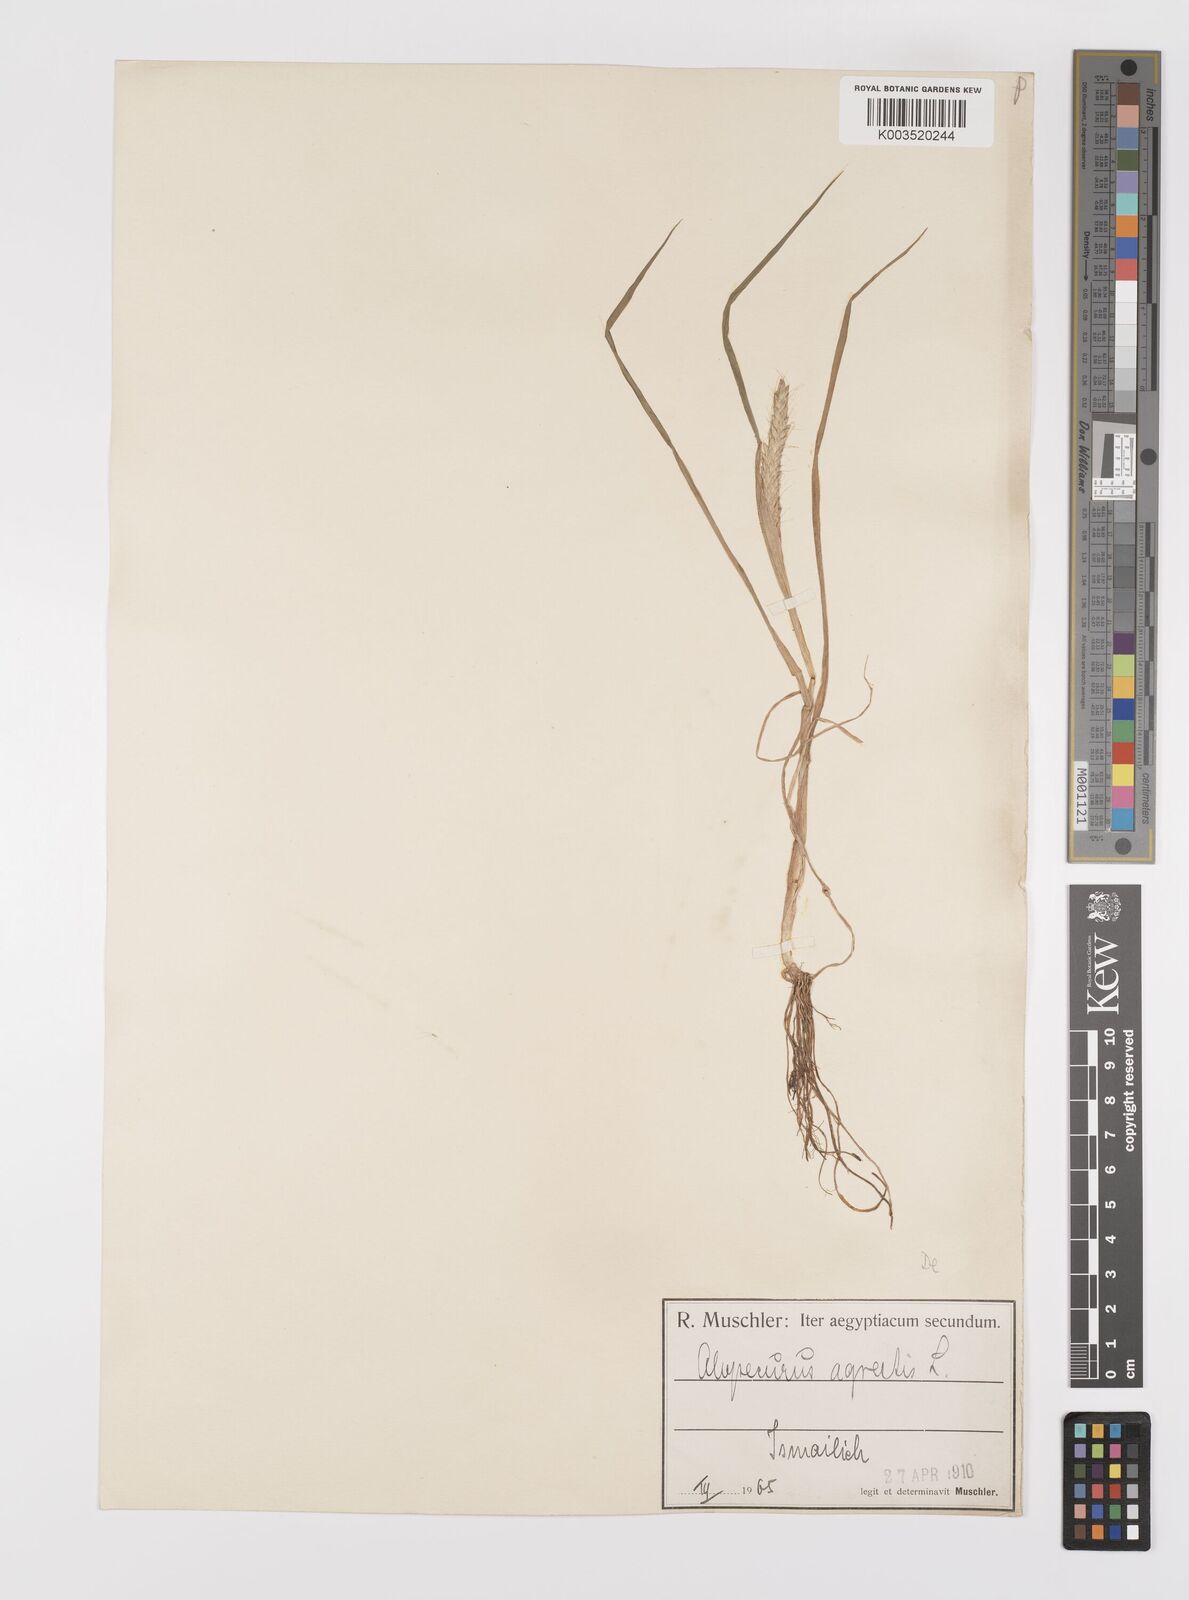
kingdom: Plantae
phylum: Tracheophyta
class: Liliopsida
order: Poales
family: Poaceae
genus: Alopecurus
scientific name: Alopecurus myosuroides
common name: Black-grass
